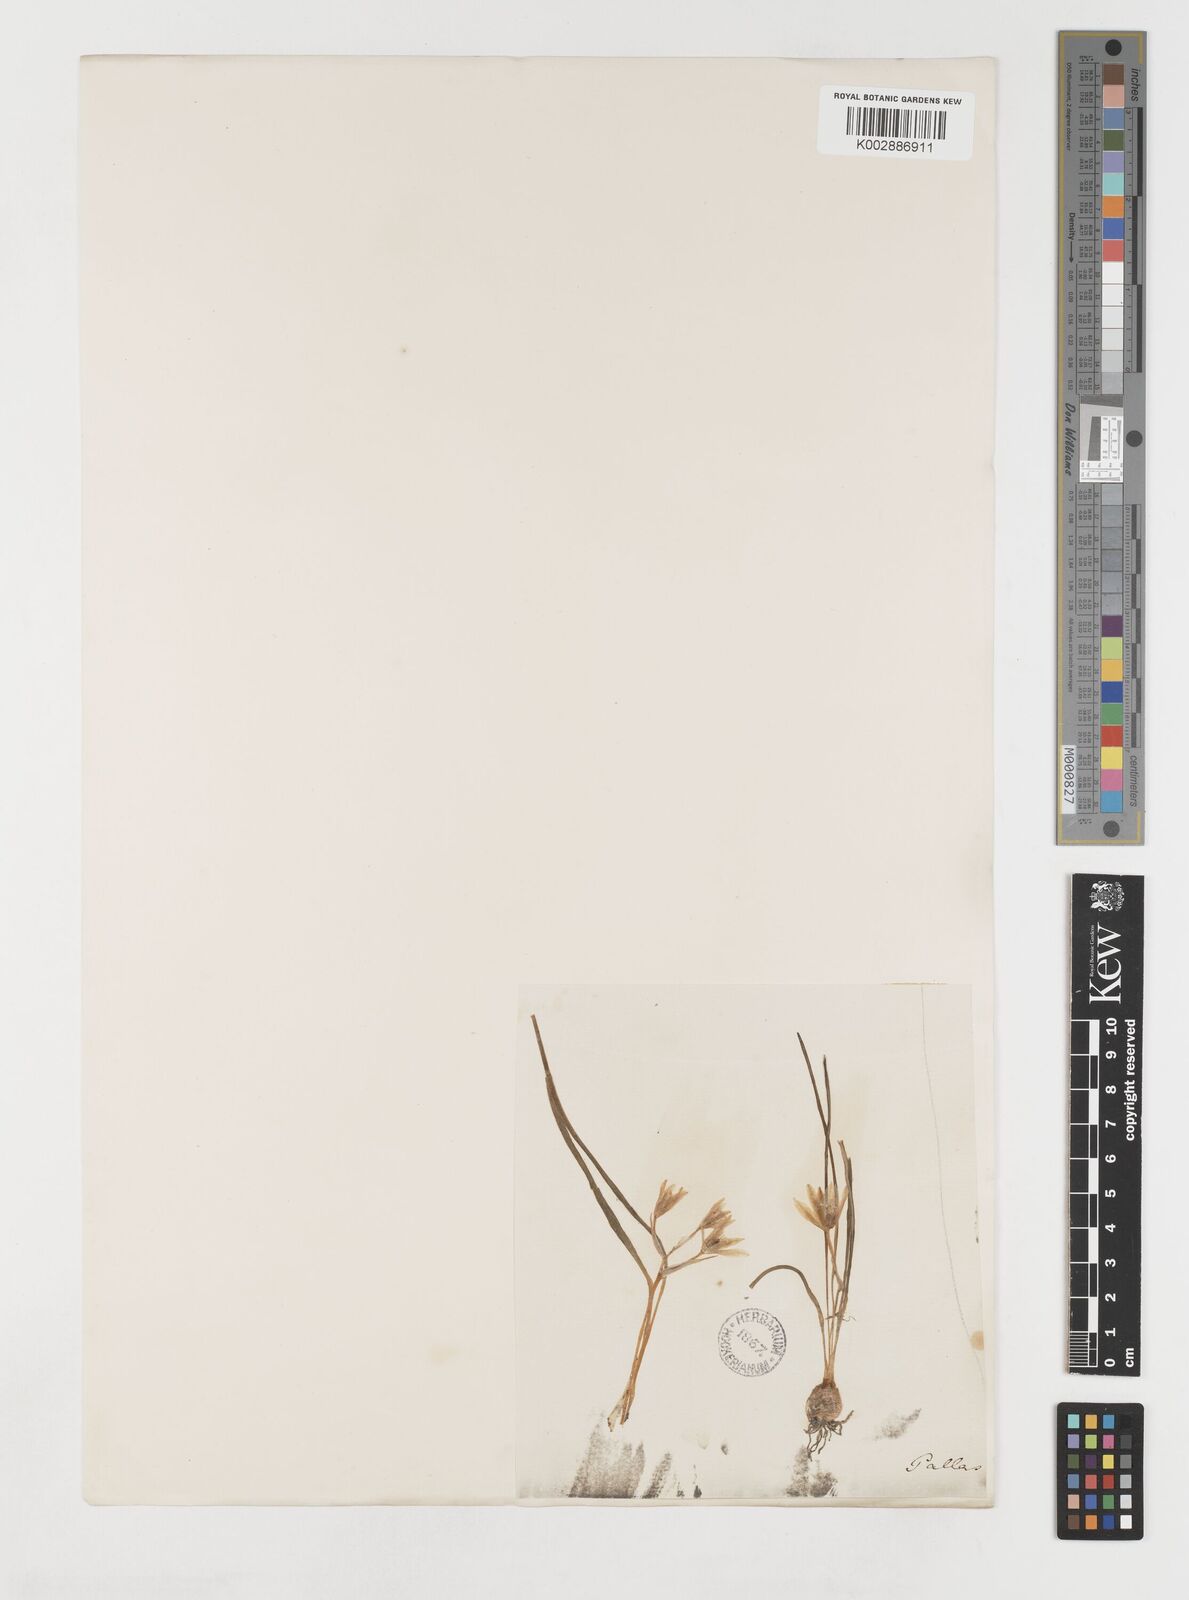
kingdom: Plantae
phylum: Tracheophyta
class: Liliopsida
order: Liliales
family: Liliaceae
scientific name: Liliaceae
